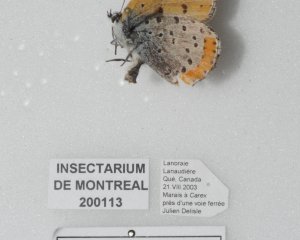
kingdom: Animalia
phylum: Arthropoda
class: Insecta
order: Lepidoptera
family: Sesiidae
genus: Sesia
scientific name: Sesia Lycaena hyllus
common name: Bronze Copper
